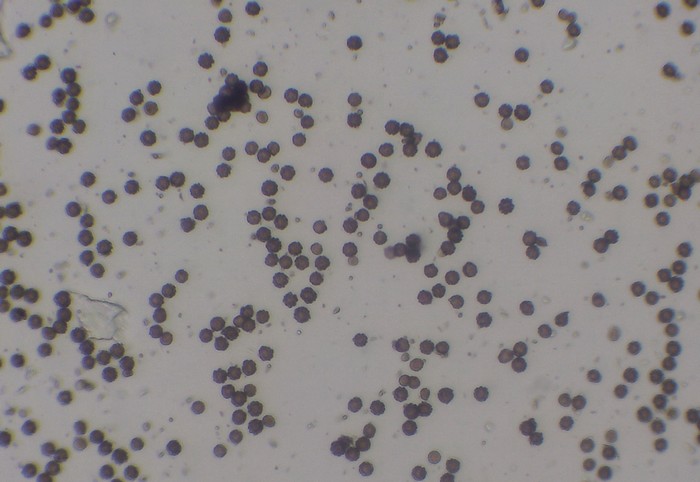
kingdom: Fungi
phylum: Basidiomycota
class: Agaricomycetes
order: Geastrales
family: Geastraceae
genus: Geastrum
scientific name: Geastrum striatum
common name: krave-stjernebold
